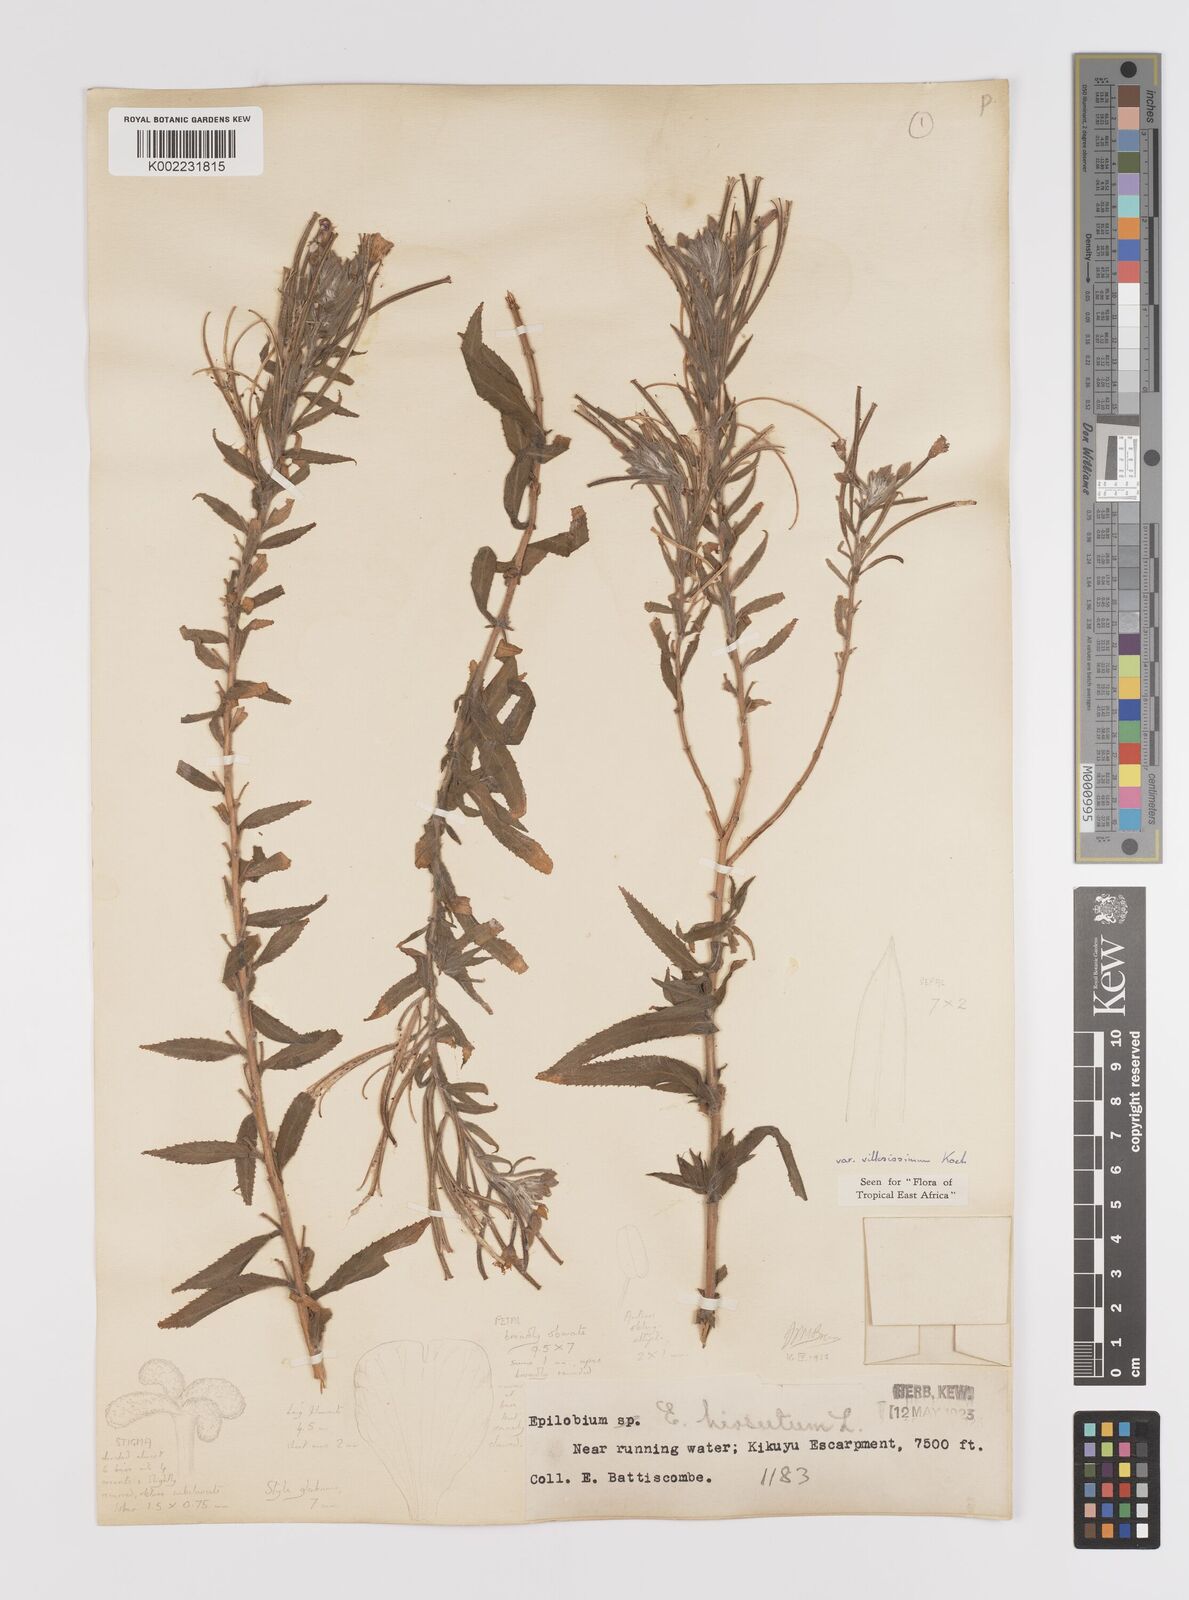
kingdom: Plantae
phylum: Tracheophyta
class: Magnoliopsida
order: Myrtales
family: Onagraceae
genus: Epilobium
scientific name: Epilobium hirsutum
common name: Great willowherb
